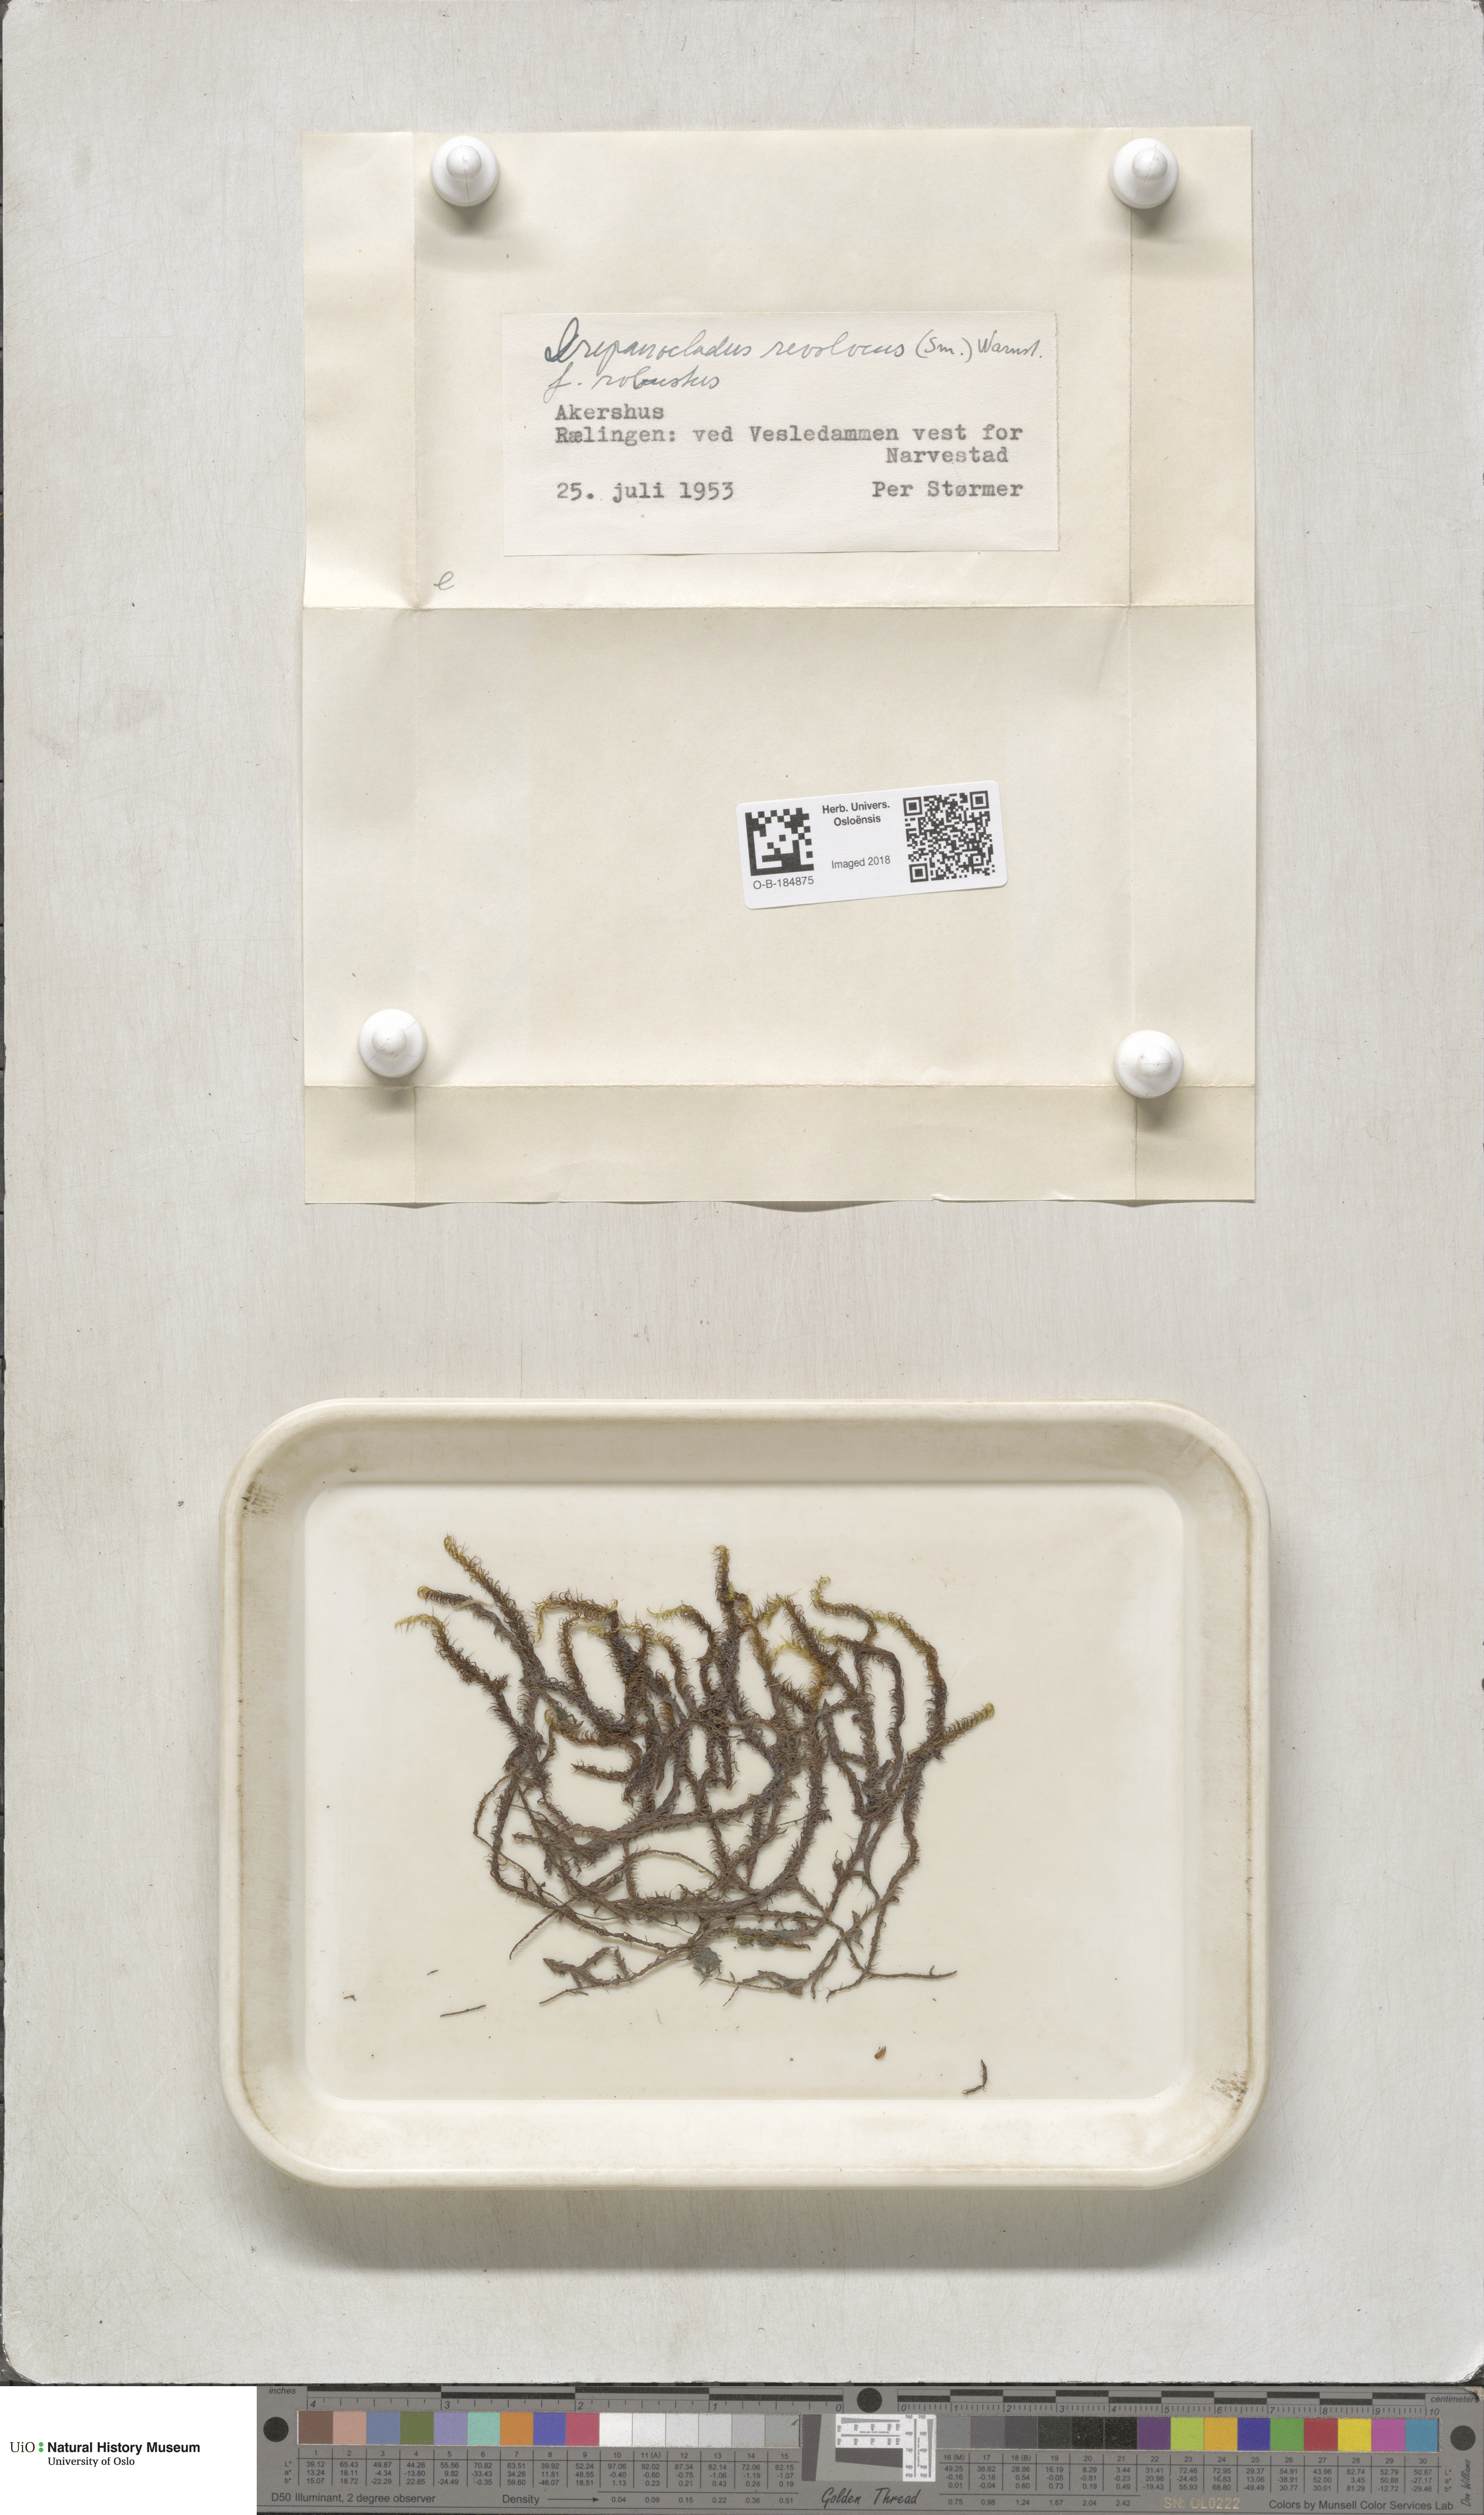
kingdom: Plantae
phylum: Bryophyta
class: Bryopsida
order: Hypnales
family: Scorpidiaceae
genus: Scorpidium
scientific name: Scorpidium revolvens
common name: Rusty hook moss
